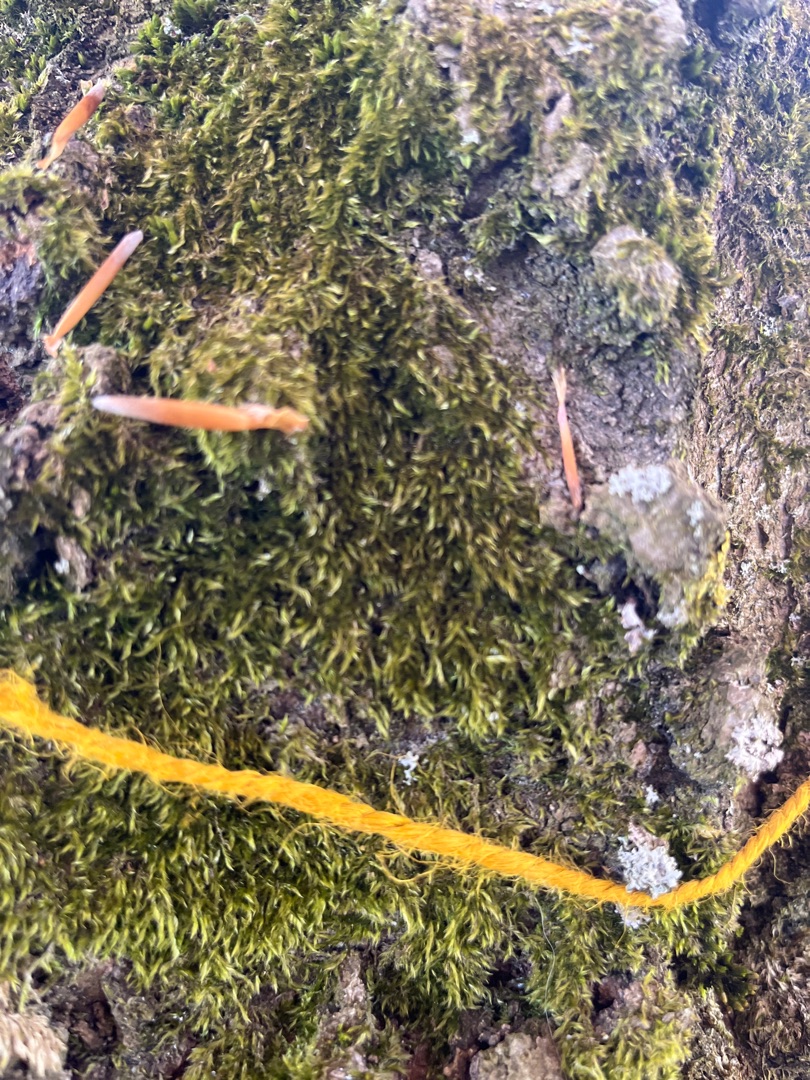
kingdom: Plantae
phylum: Bryophyta
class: Bryopsida
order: Hypnales
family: Hypnaceae
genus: Hypnum
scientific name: Hypnum
